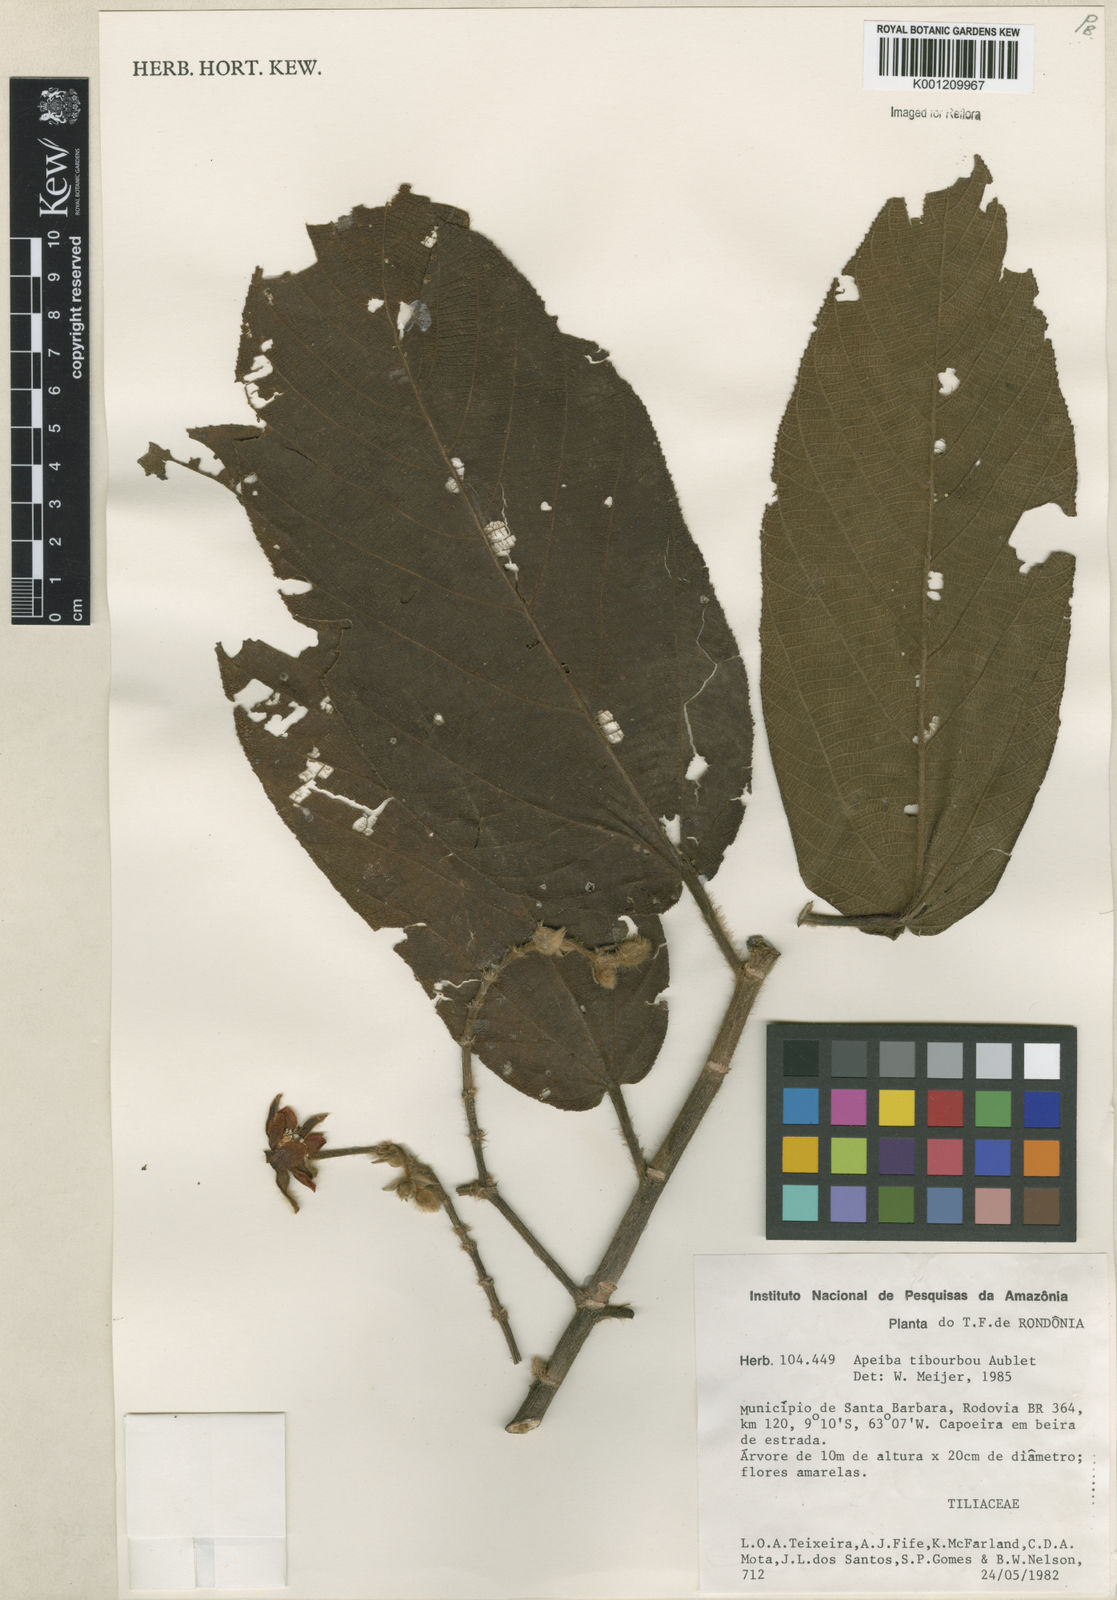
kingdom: Plantae
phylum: Tracheophyta
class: Magnoliopsida
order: Malvales
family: Malvaceae
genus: Apeiba
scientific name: Apeiba tibourbou
